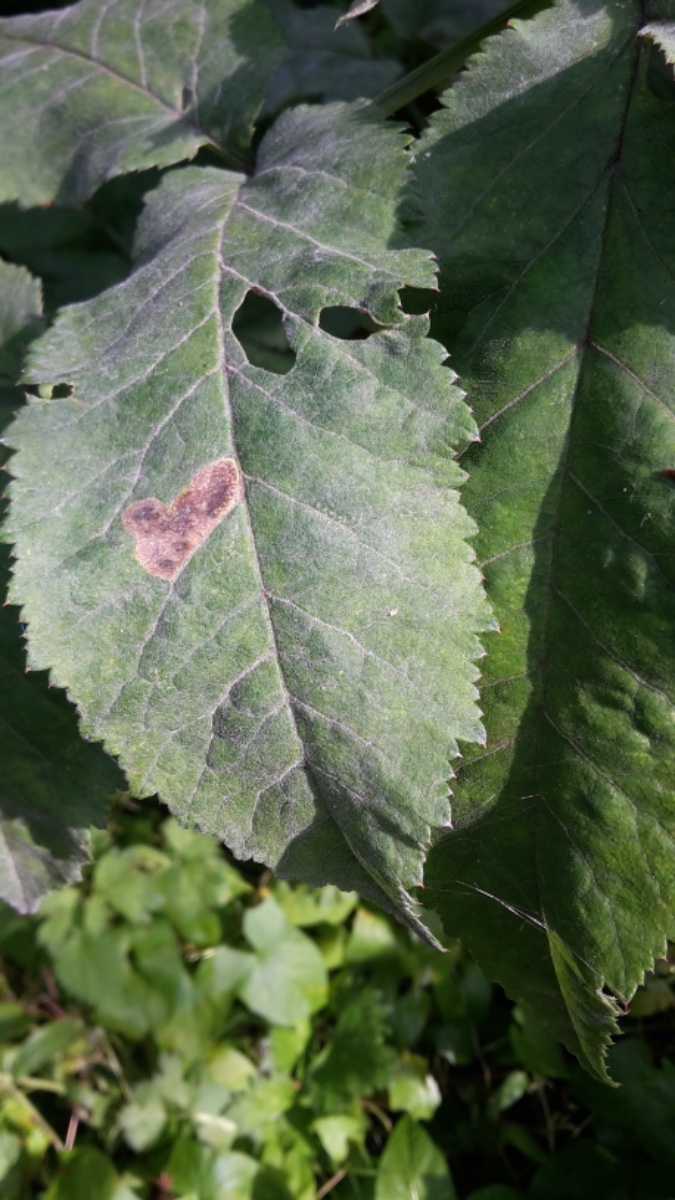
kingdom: Fungi
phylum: Ascomycota
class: Leotiomycetes
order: Helotiales
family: Erysiphaceae
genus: Erysiphe
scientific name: Erysiphe heraclei
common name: skærmplante-meldug
